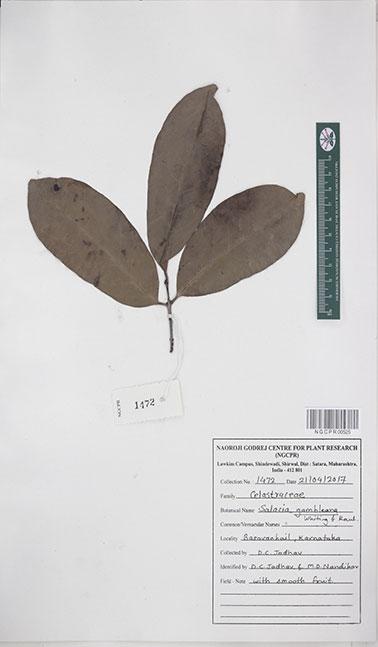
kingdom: Plantae
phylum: Tracheophyta
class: Magnoliopsida
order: Celastrales
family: Celastraceae
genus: Salacia
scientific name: Salacia gambleana
